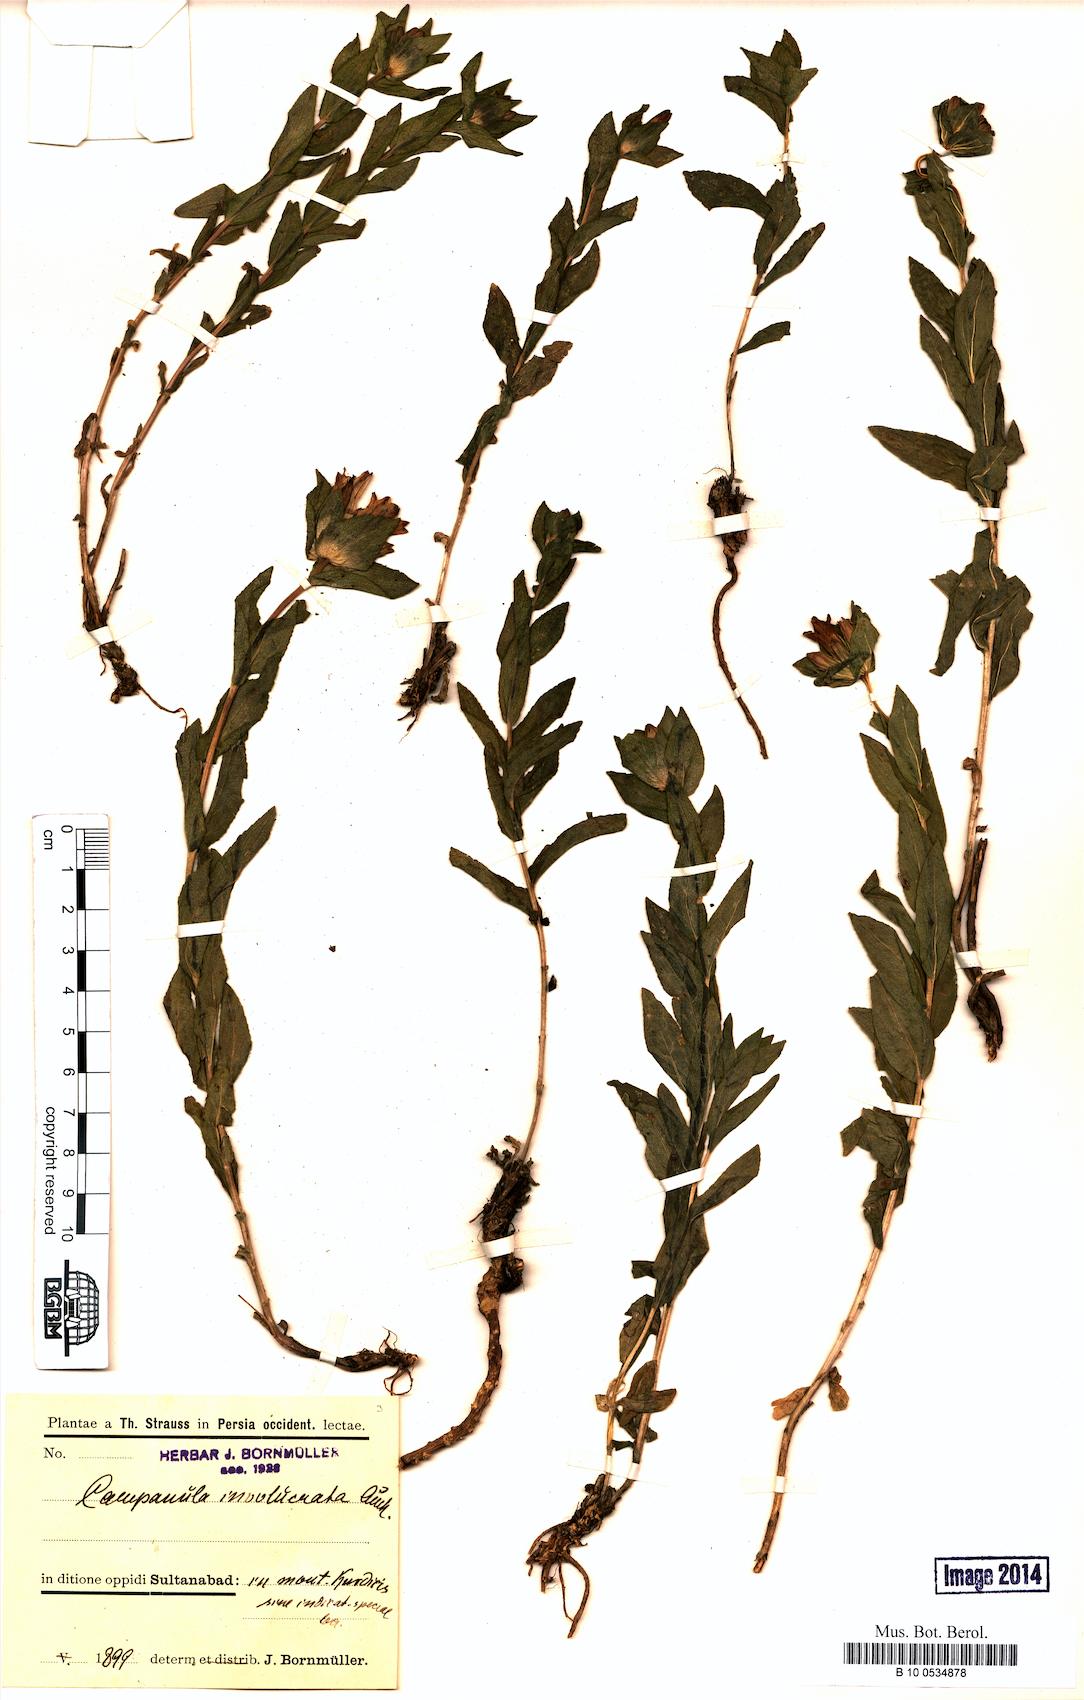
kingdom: Plantae
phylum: Tracheophyta
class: Magnoliopsida
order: Asterales
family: Campanulaceae
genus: Campanula
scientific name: Campanula involucrata
